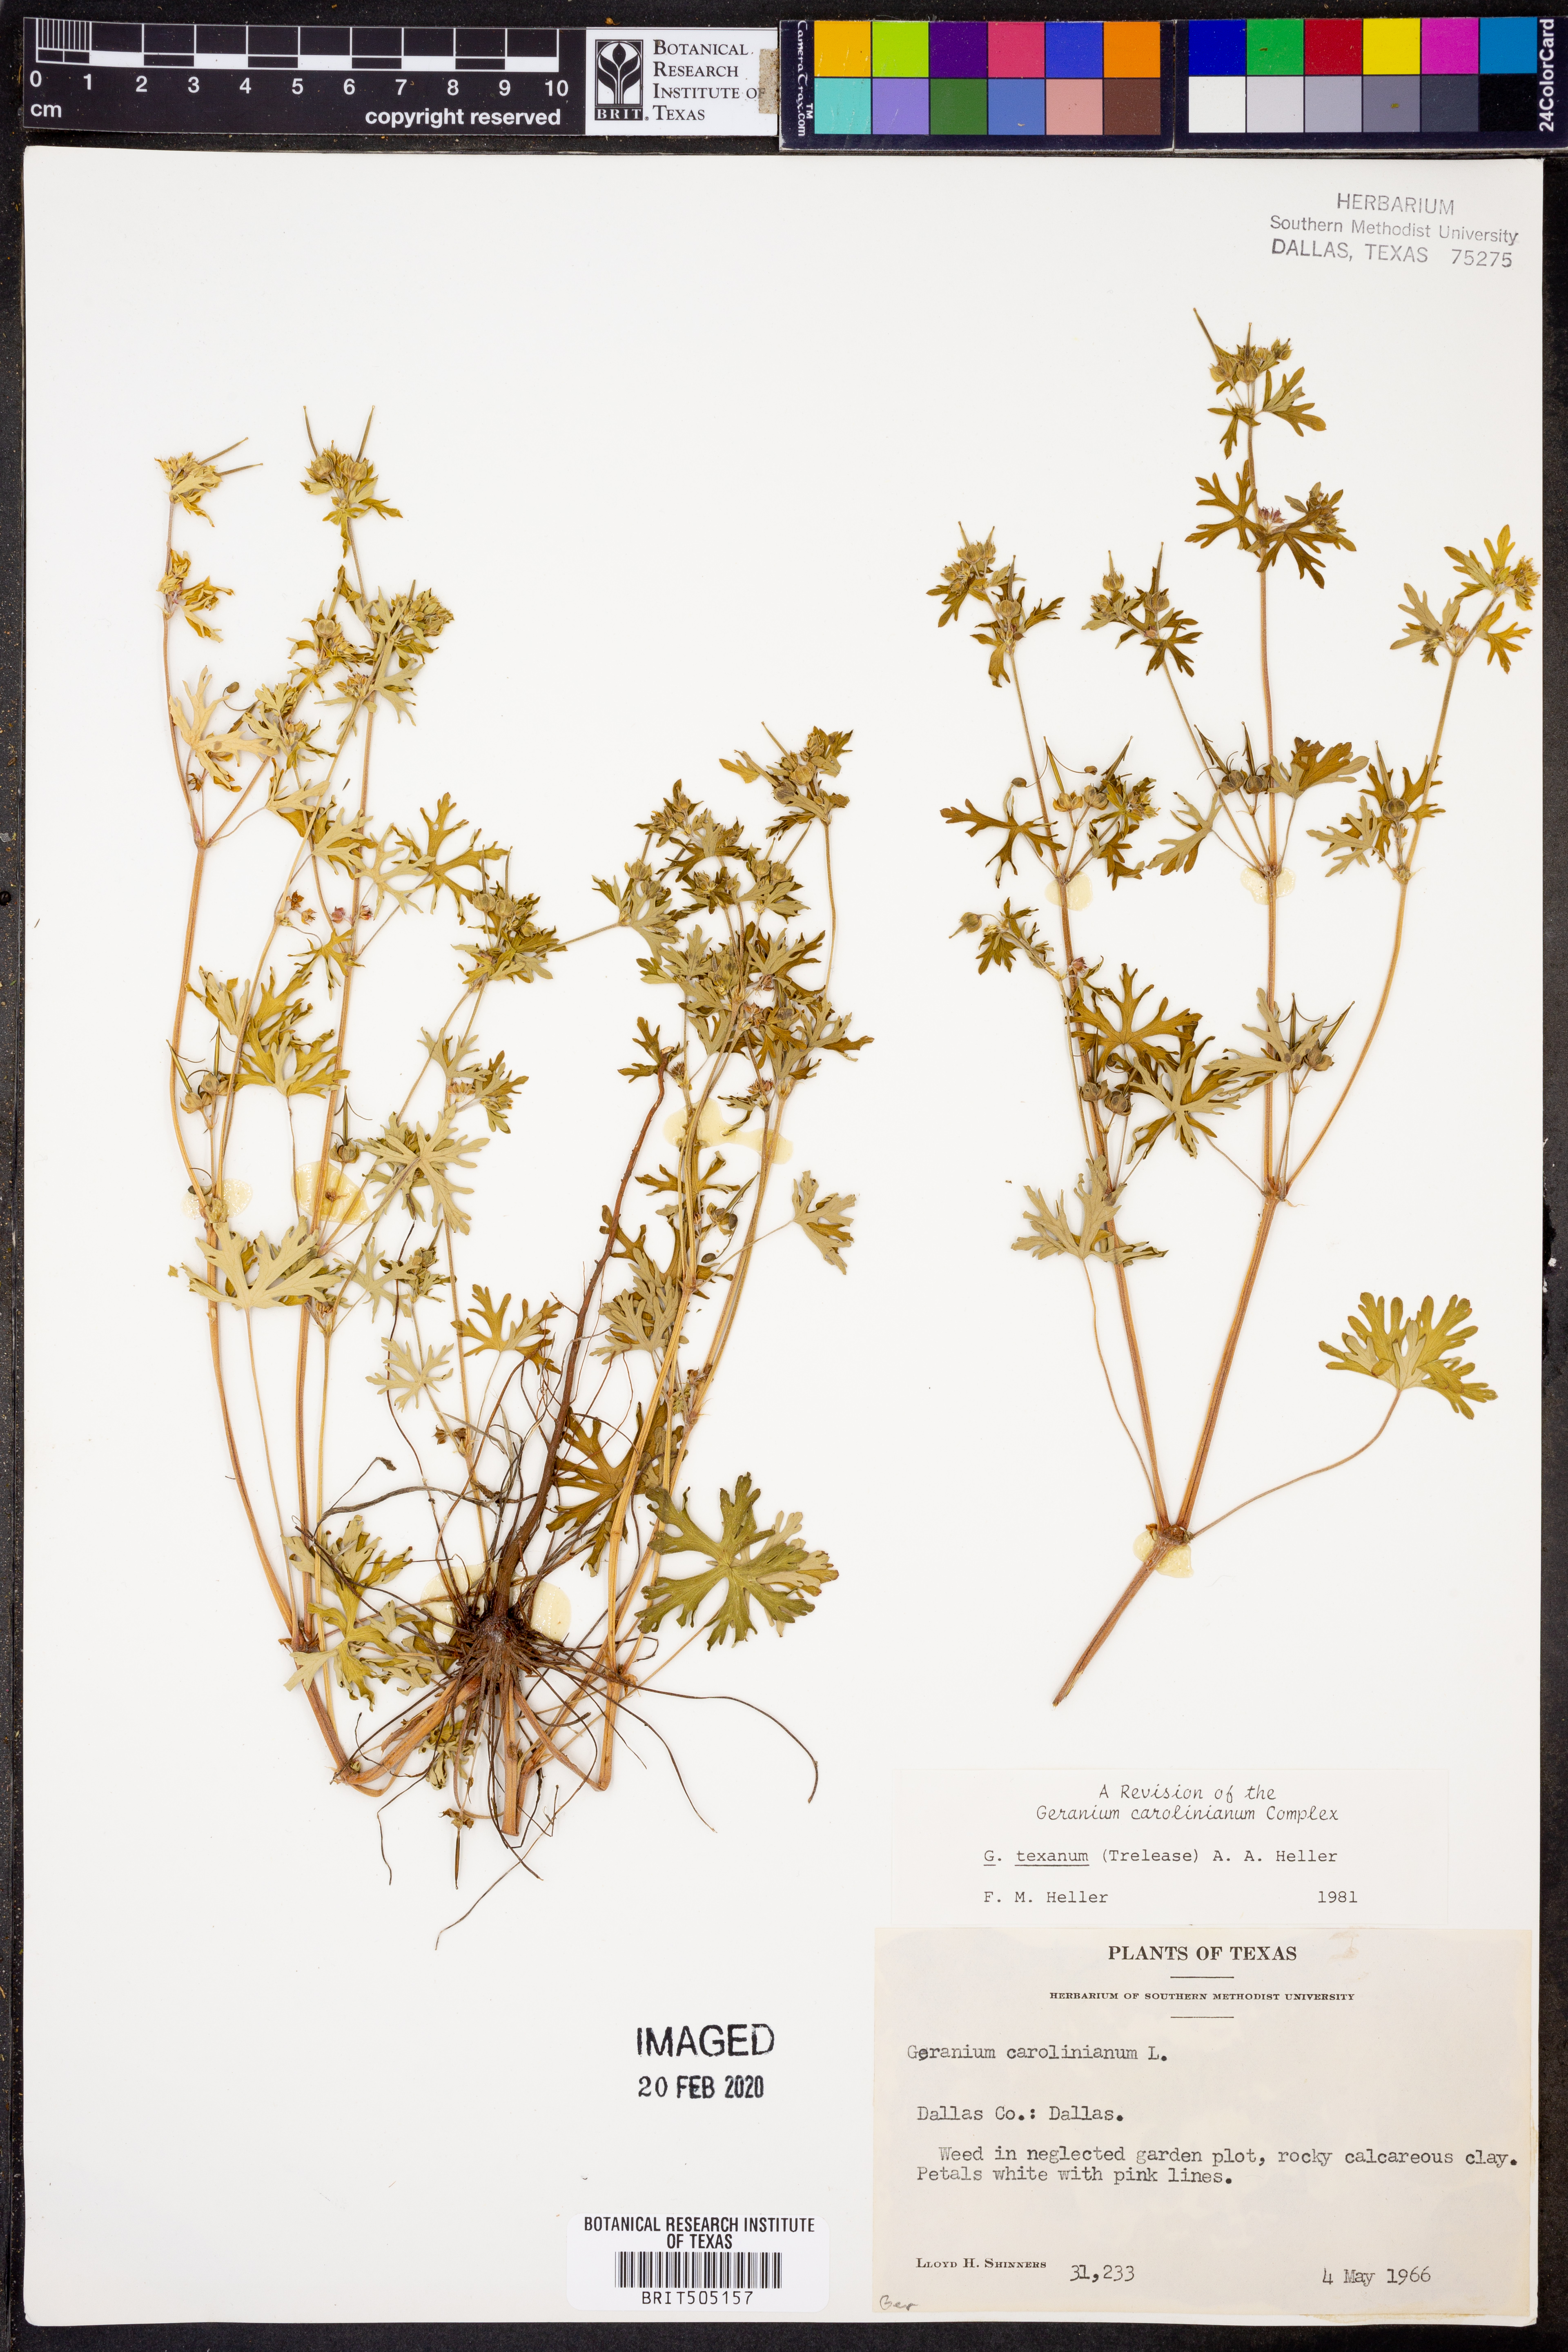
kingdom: Plantae
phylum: Tracheophyta
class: Magnoliopsida
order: Geraniales
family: Geraniaceae
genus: Geranium
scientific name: Geranium texanum
